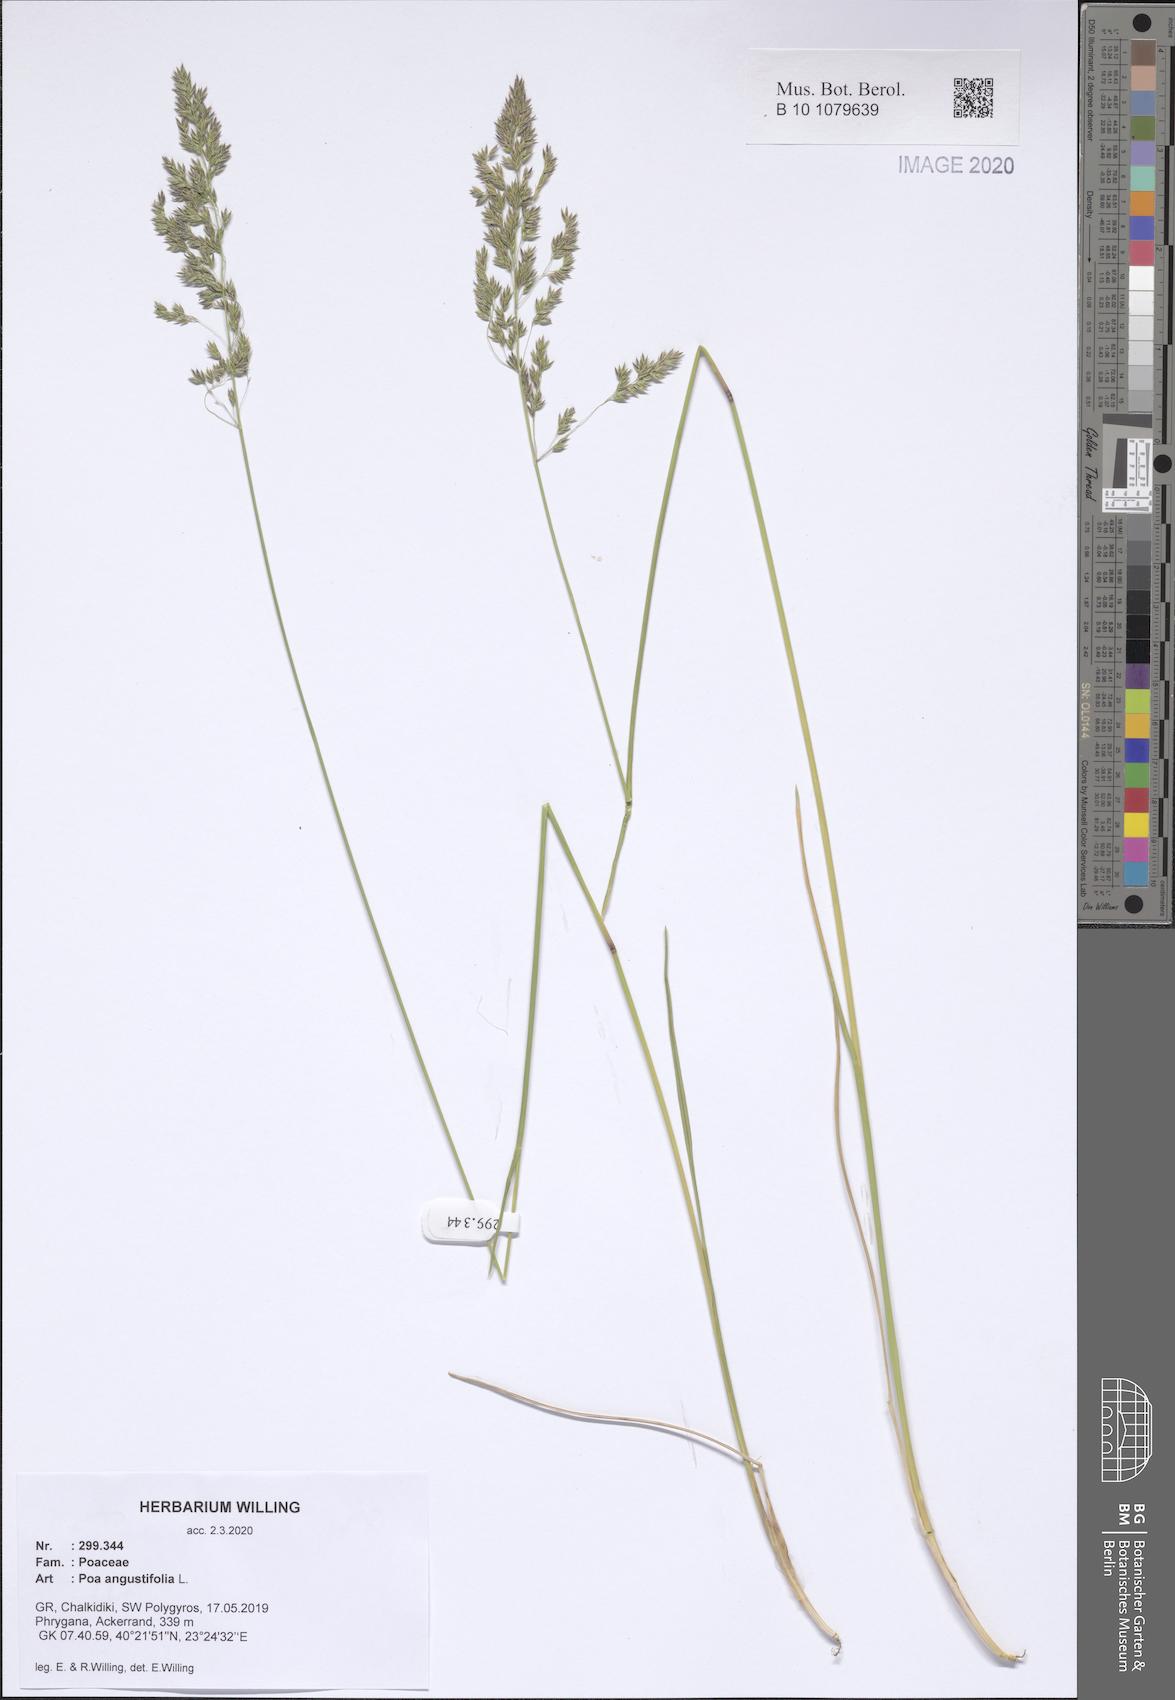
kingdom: Plantae
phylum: Tracheophyta
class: Liliopsida
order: Poales
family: Poaceae
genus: Poa
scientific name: Poa angustifolia
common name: Narrow-leaved meadow-grass
